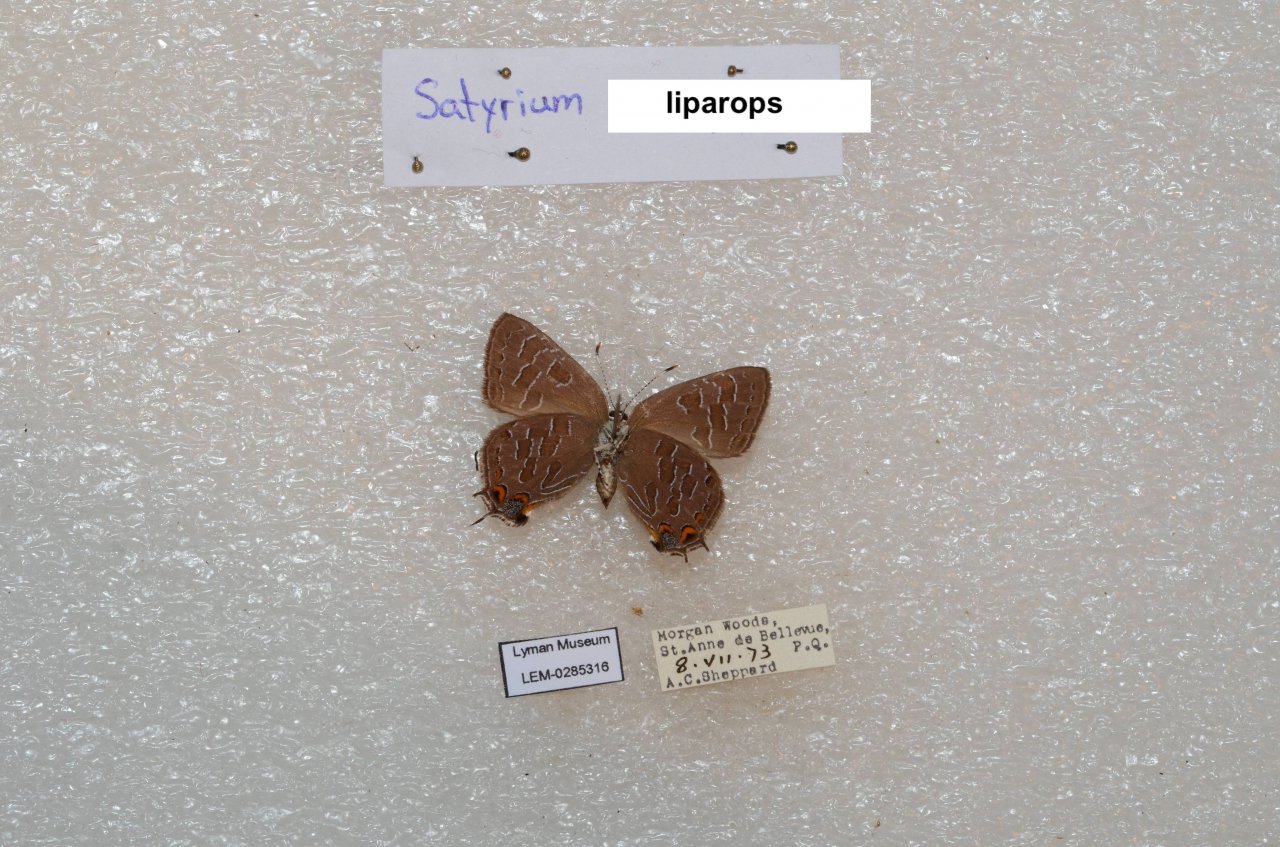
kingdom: Animalia
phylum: Arthropoda
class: Insecta
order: Lepidoptera
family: Lycaenidae
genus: Satyrium
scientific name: Satyrium liparops
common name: Striped Hairstreak
